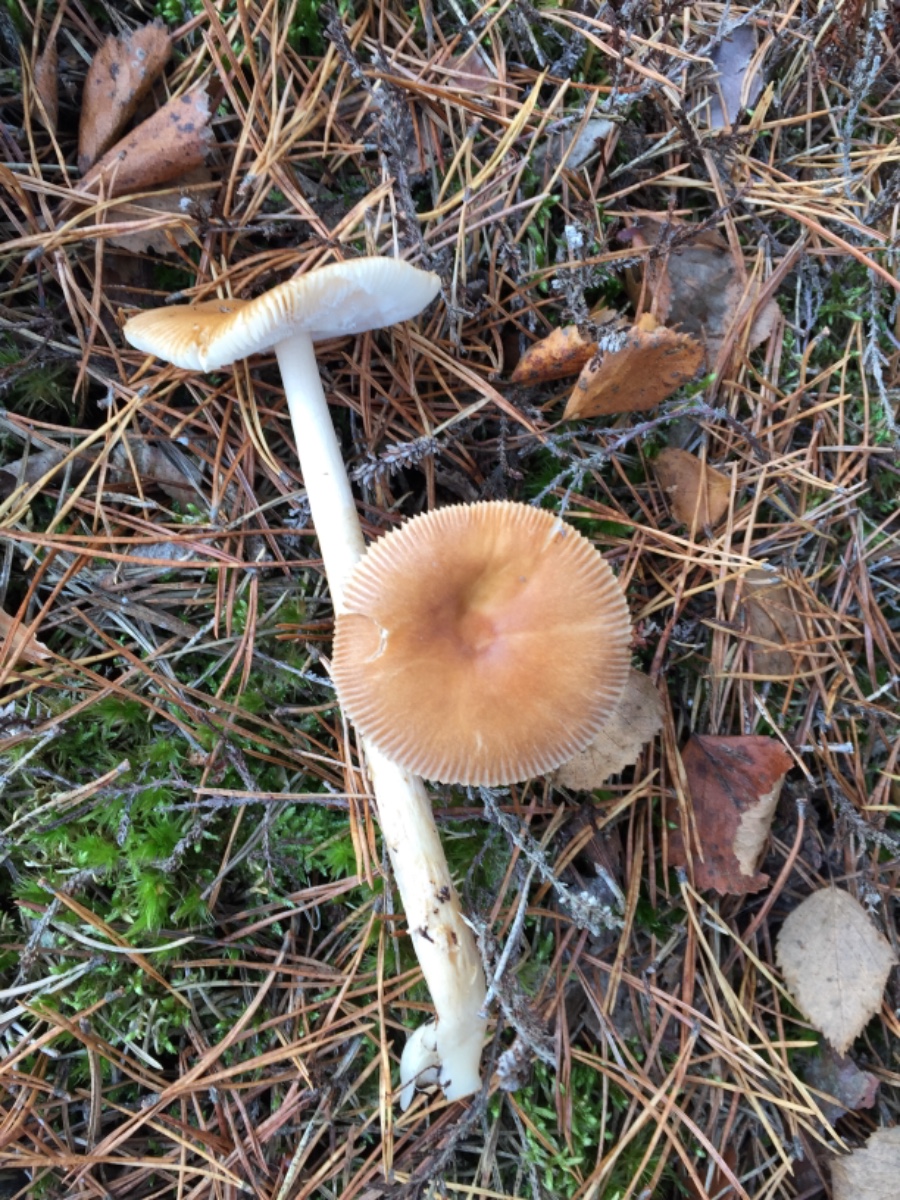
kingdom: Fungi
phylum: Basidiomycota
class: Agaricomycetes
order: Agaricales
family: Amanitaceae
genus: Amanita
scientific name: Amanita fulva
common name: brun kam-fluesvamp
